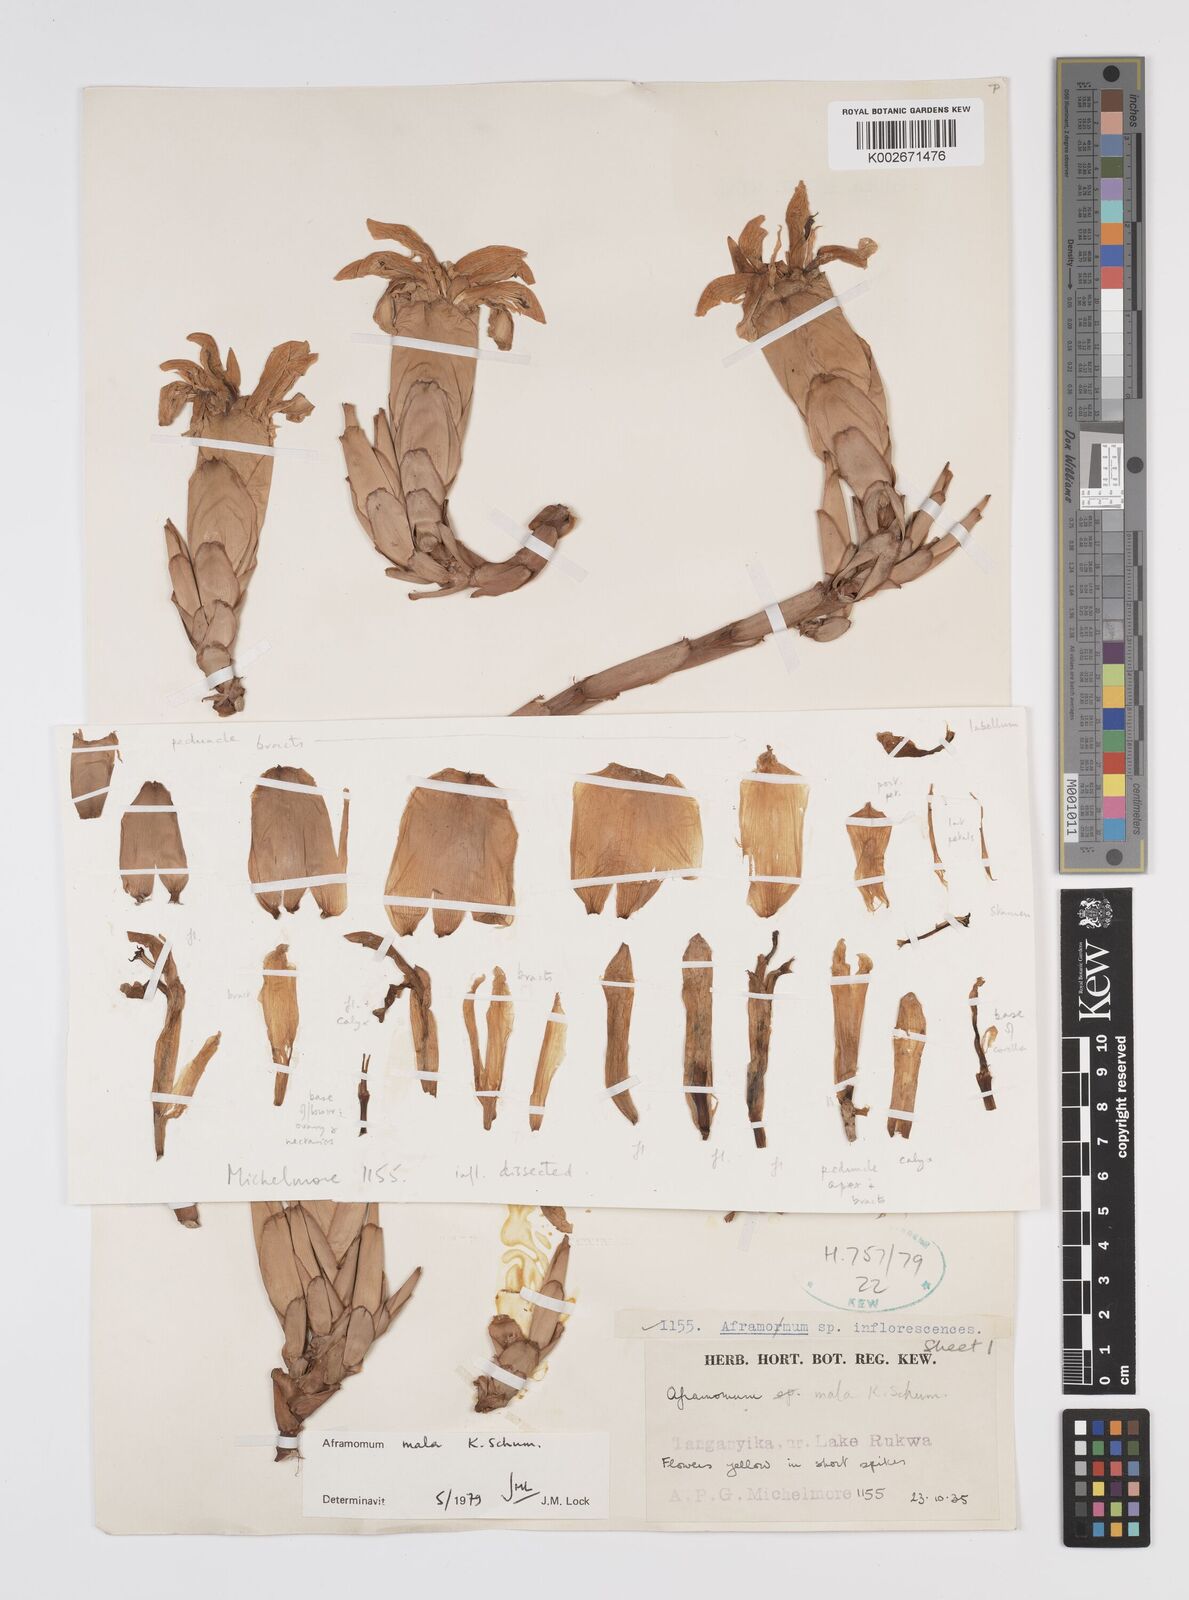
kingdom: Plantae
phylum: Tracheophyta
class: Liliopsida
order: Zingiberales
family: Zingiberaceae
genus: Aframomum
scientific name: Aframomum mala
